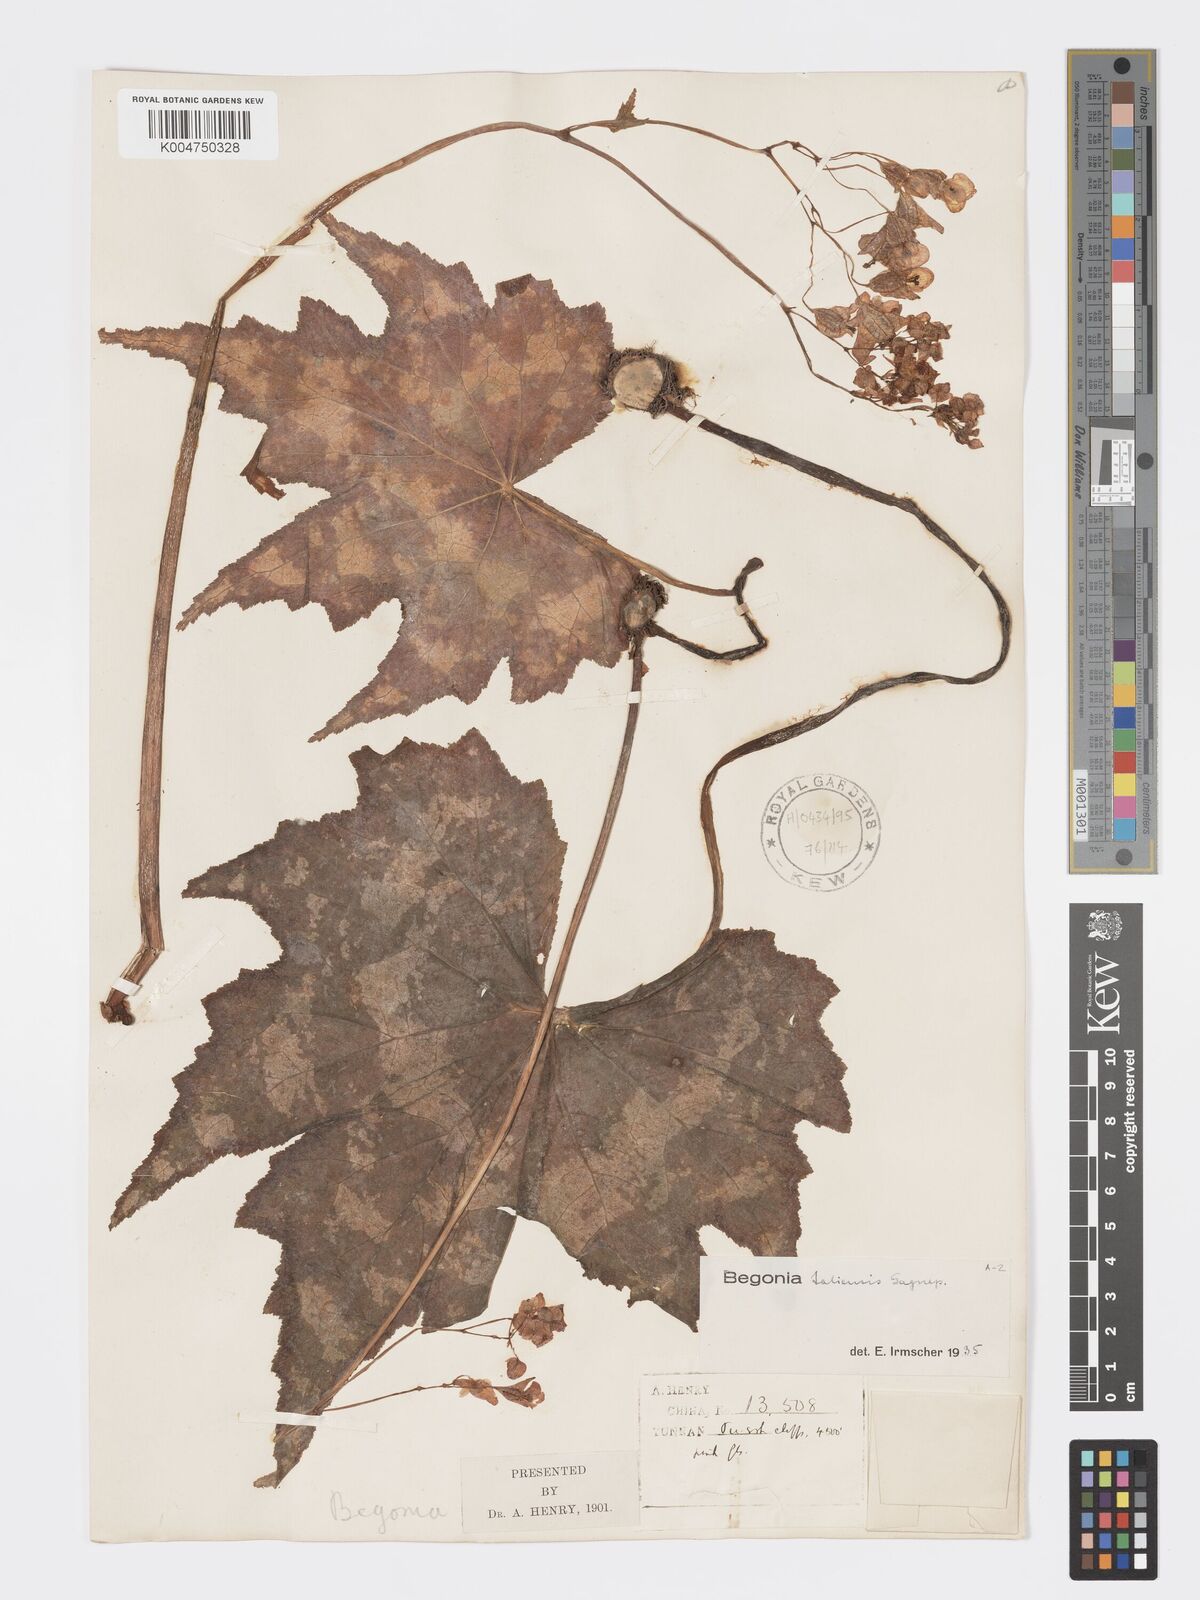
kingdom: Plantae
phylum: Tracheophyta
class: Magnoliopsida
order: Cucurbitales
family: Begoniaceae
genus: Begonia
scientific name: Begonia taliensis
